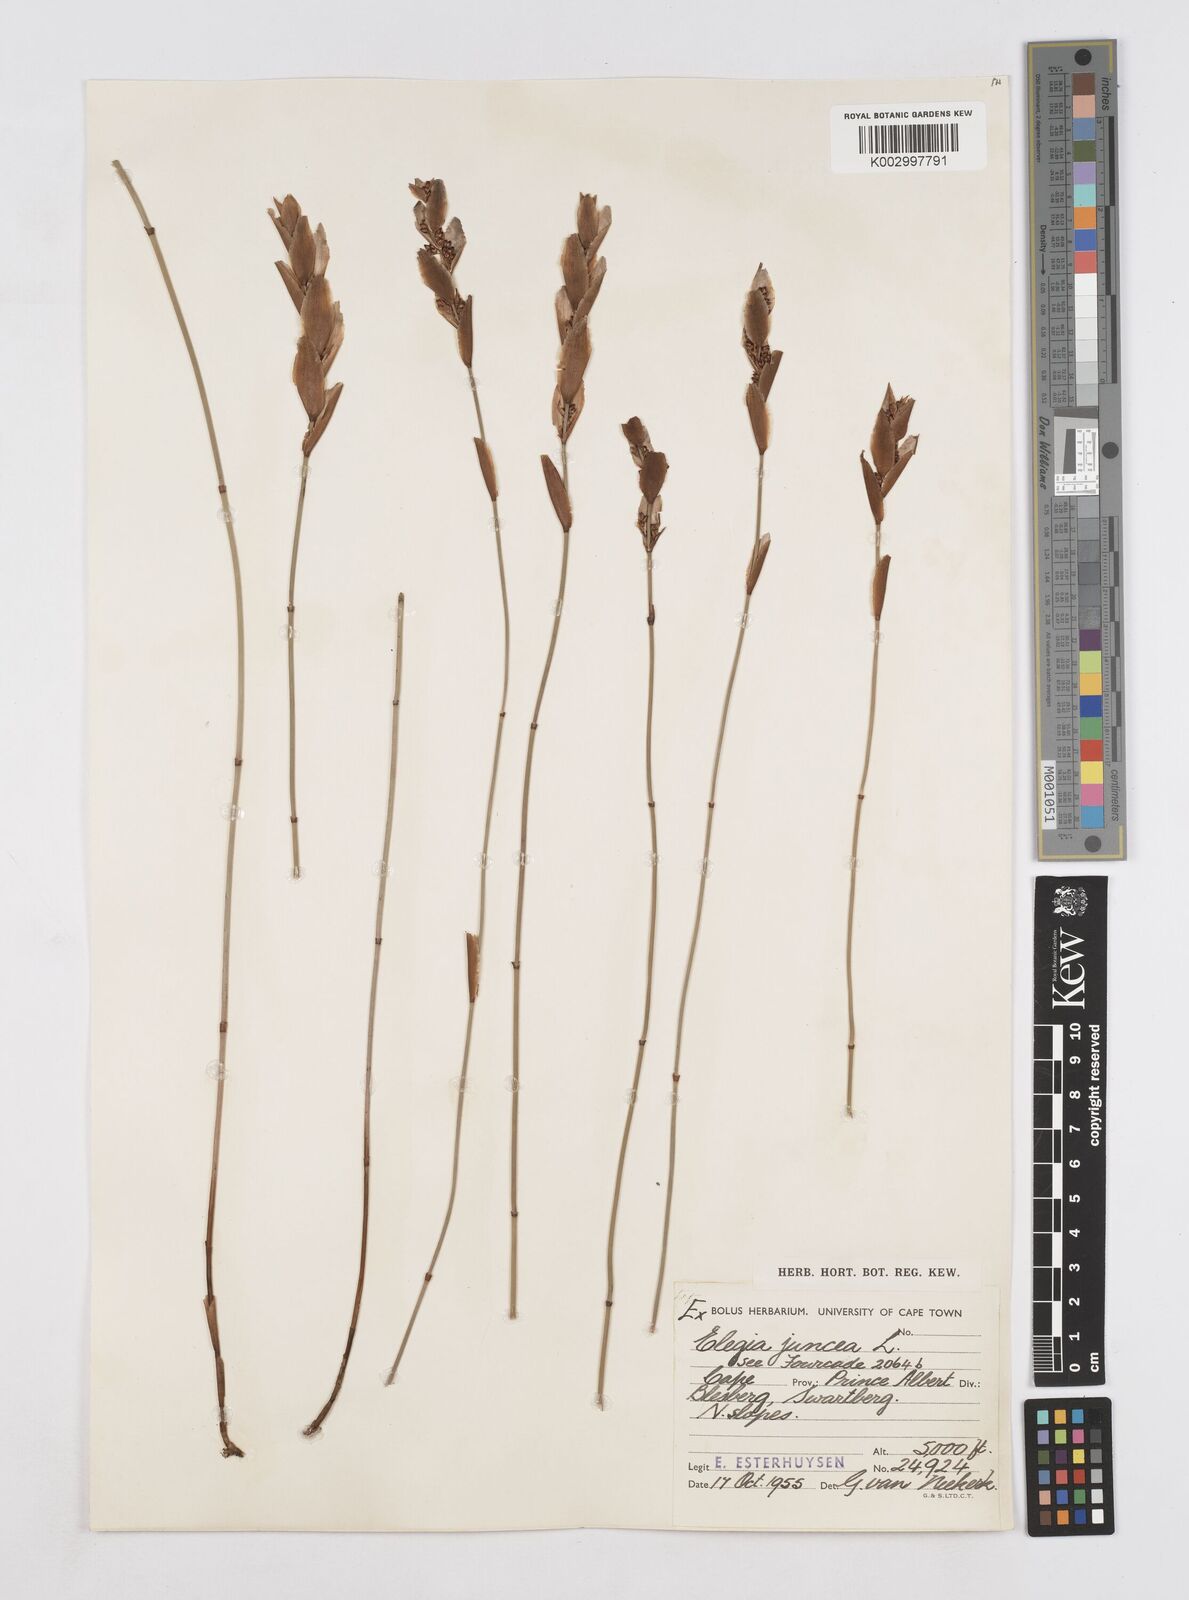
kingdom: Plantae
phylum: Tracheophyta
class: Liliopsida
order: Poales
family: Restionaceae
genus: Elegia
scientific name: Elegia juncea
